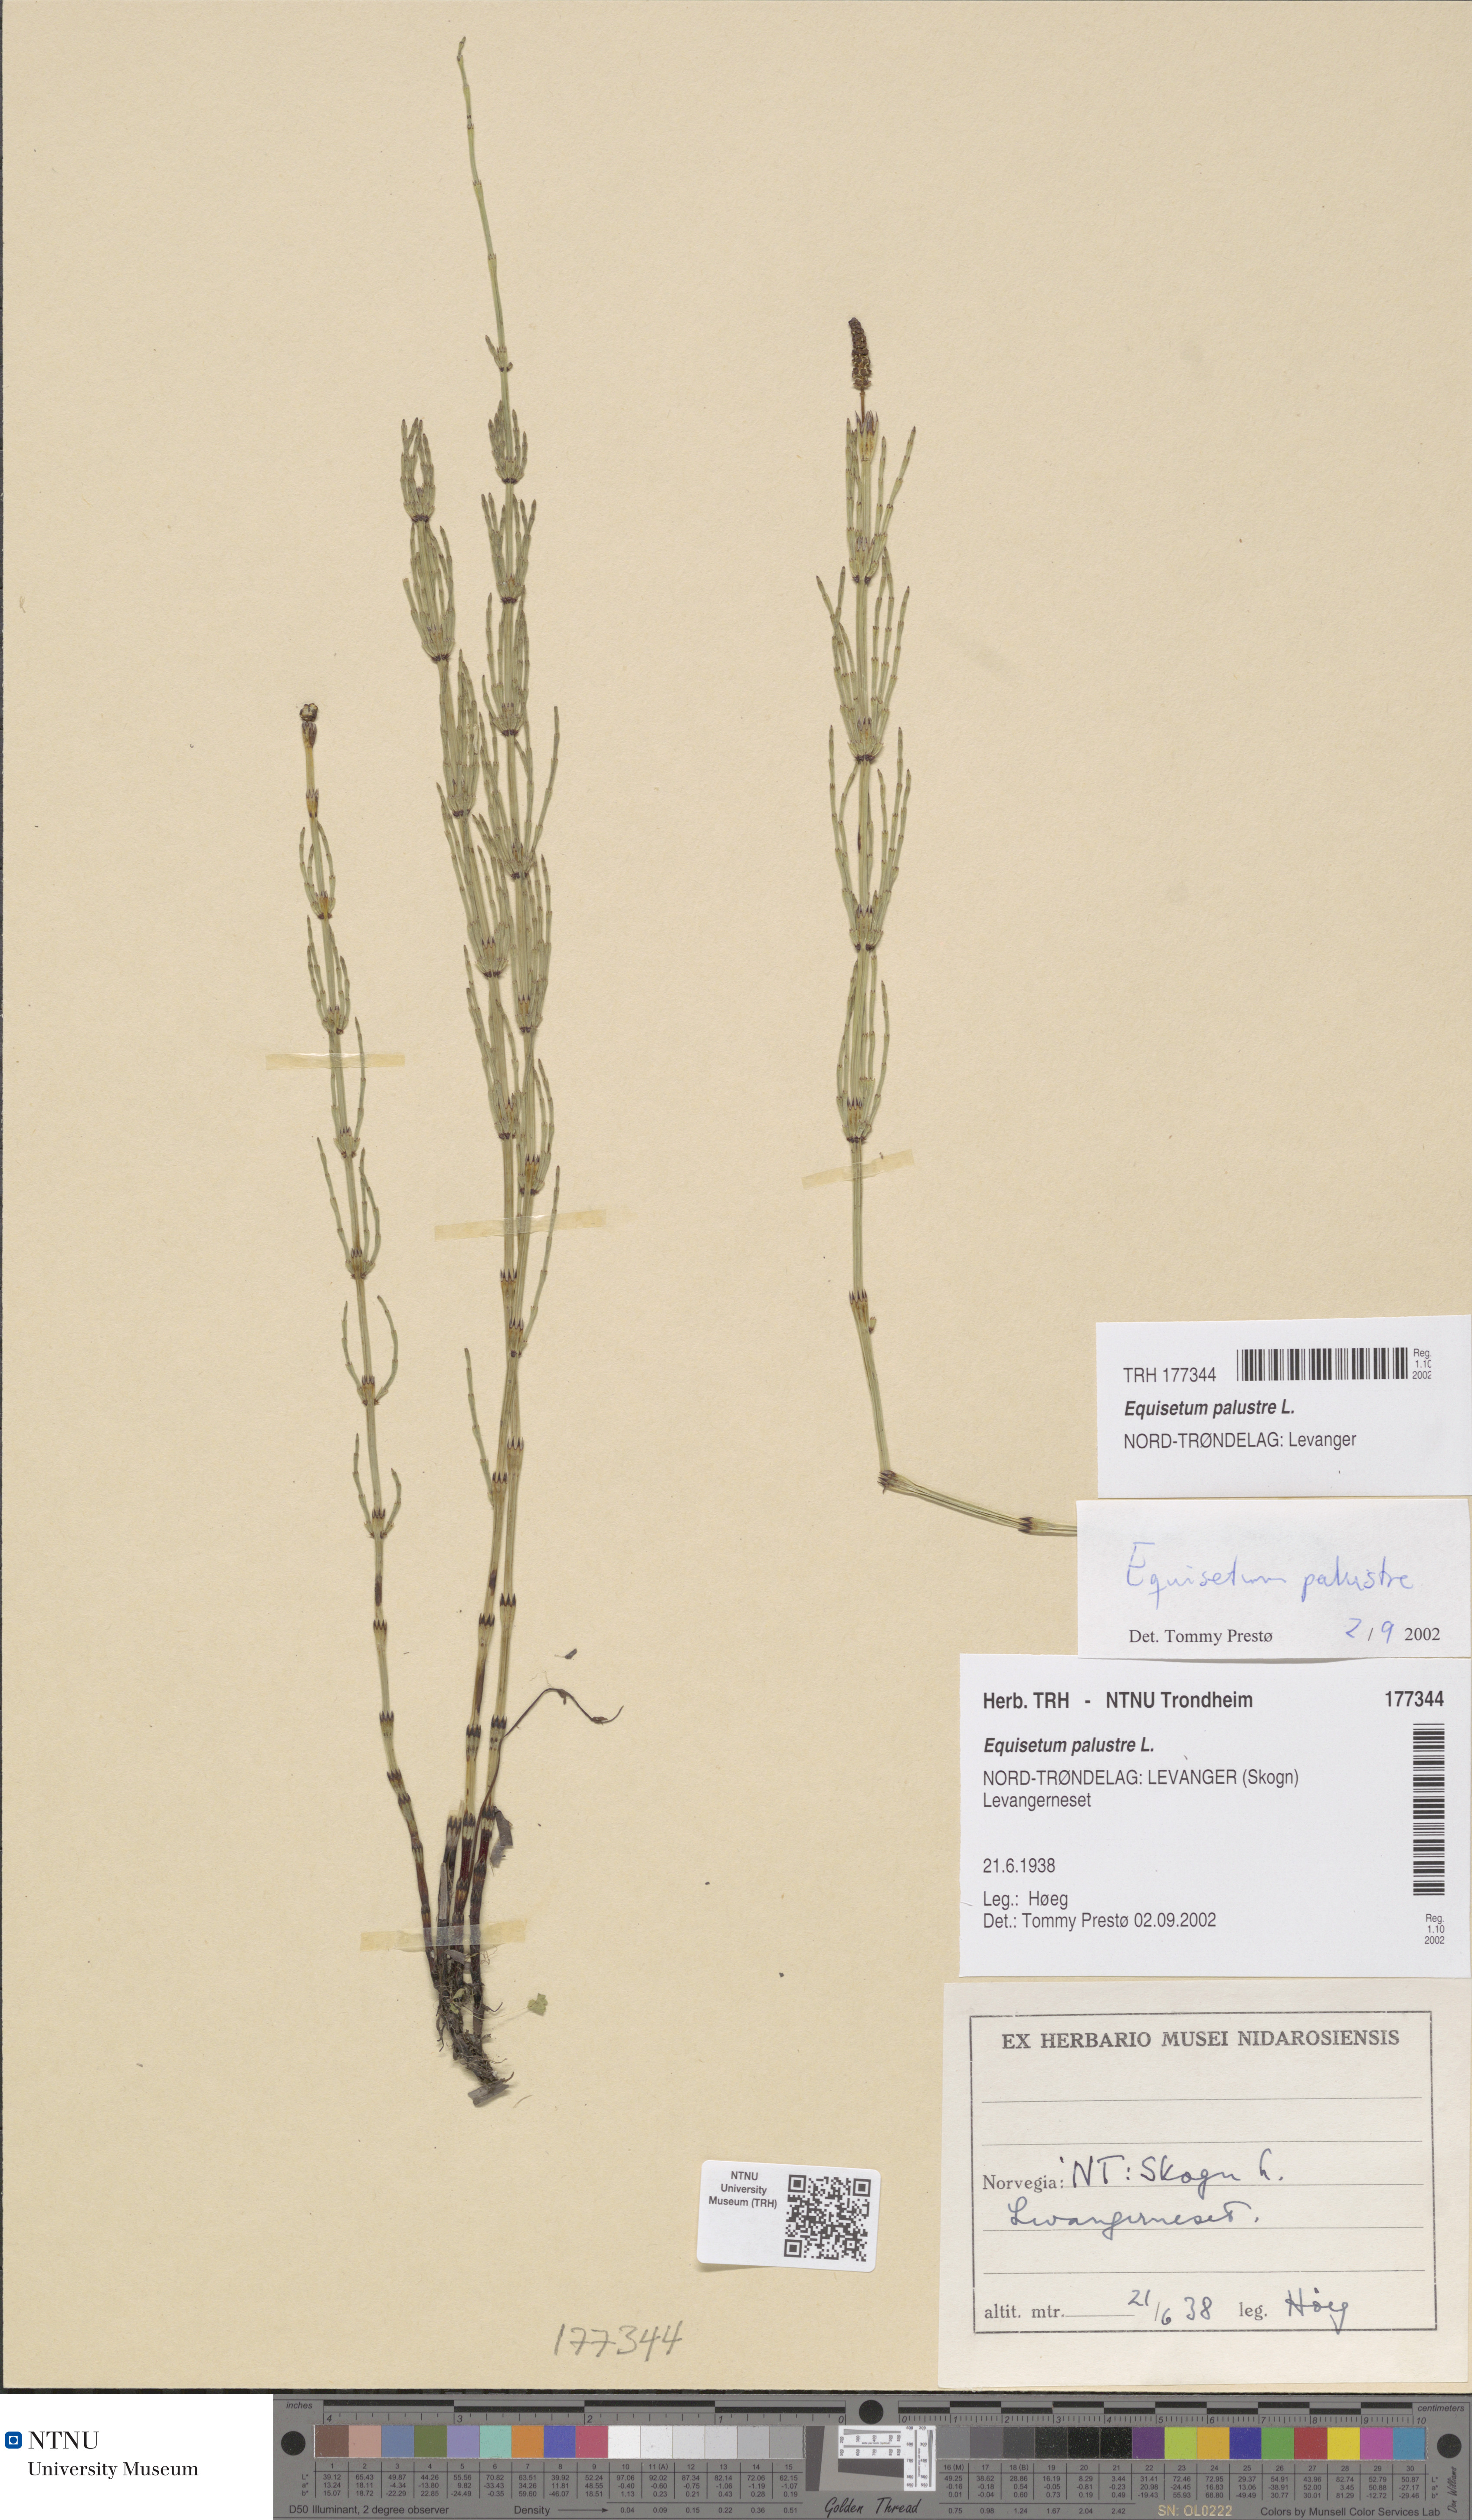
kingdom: Plantae
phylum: Tracheophyta
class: Polypodiopsida
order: Equisetales
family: Equisetaceae
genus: Equisetum
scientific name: Equisetum palustre
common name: Marsh horsetail
